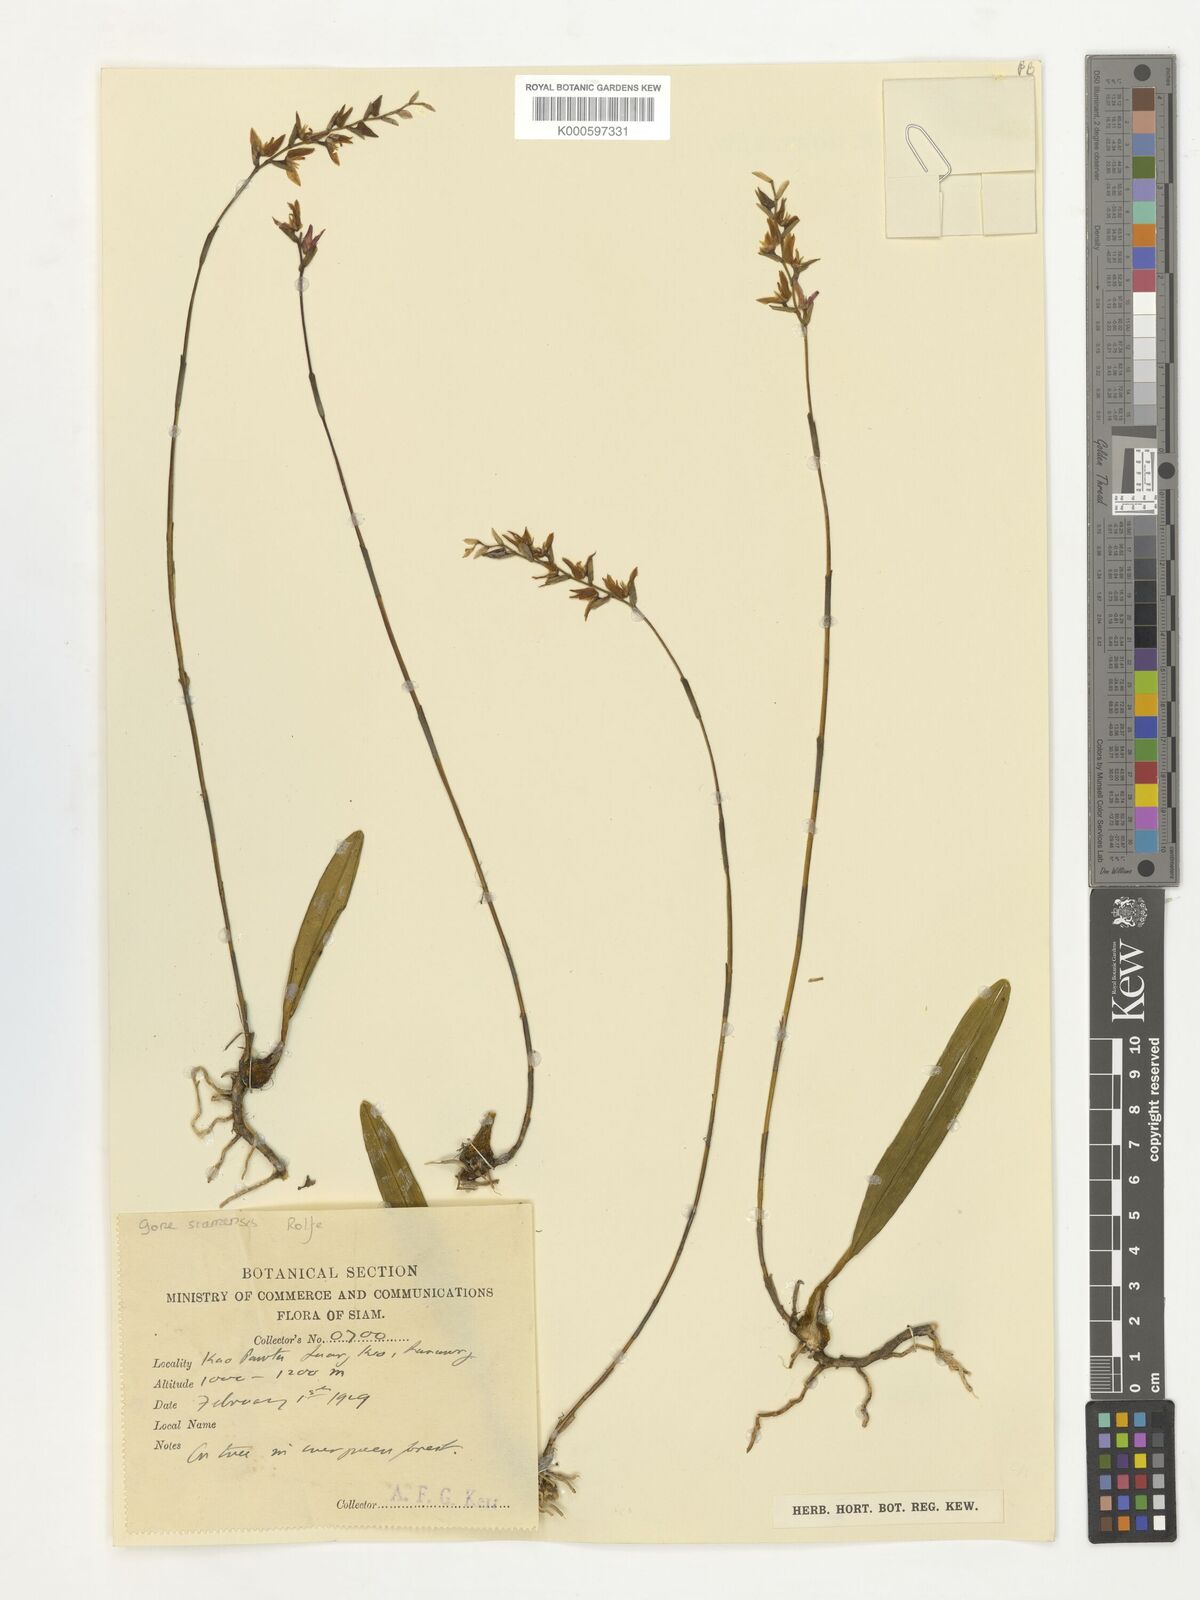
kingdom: Plantae
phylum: Tracheophyta
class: Liliopsida
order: Asparagales
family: Orchidaceae
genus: Bulbophyllum
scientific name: Bulbophyllum reptans
